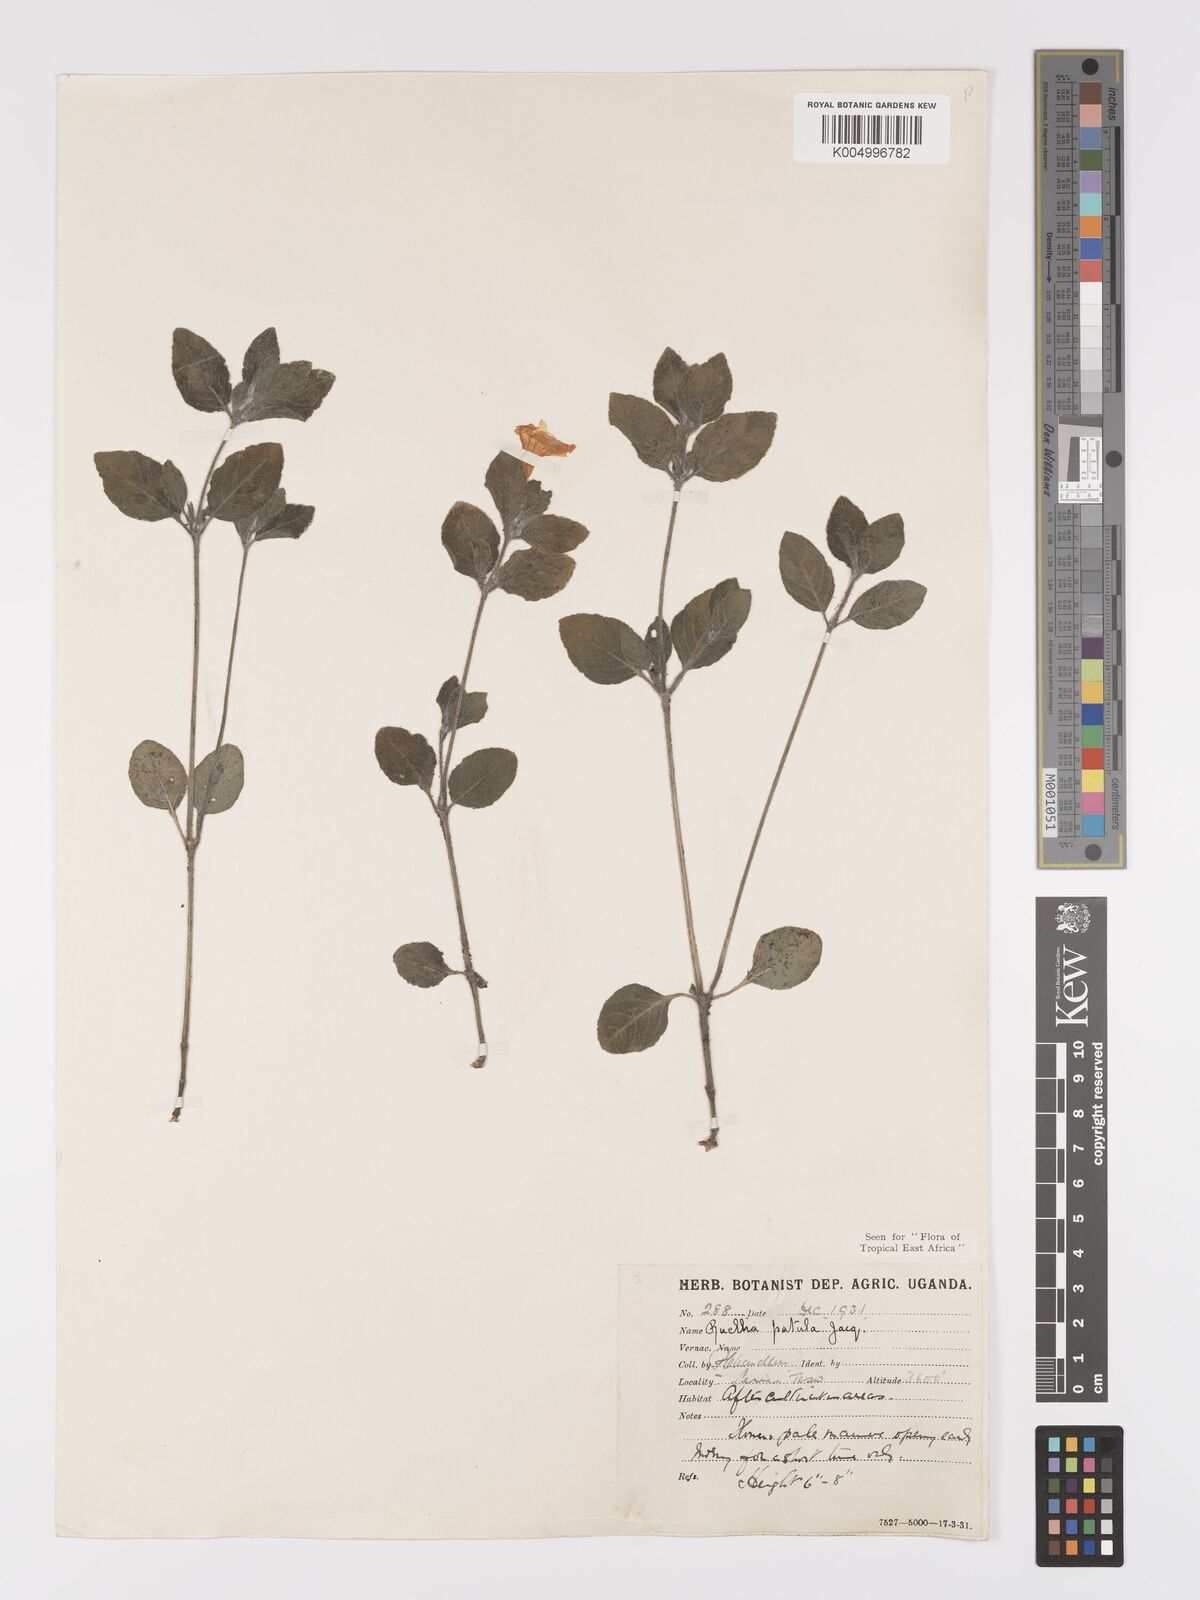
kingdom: Plantae
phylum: Tracheophyta
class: Magnoliopsida
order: Lamiales
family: Acanthaceae
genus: Ruellia
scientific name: Ruellia patula
